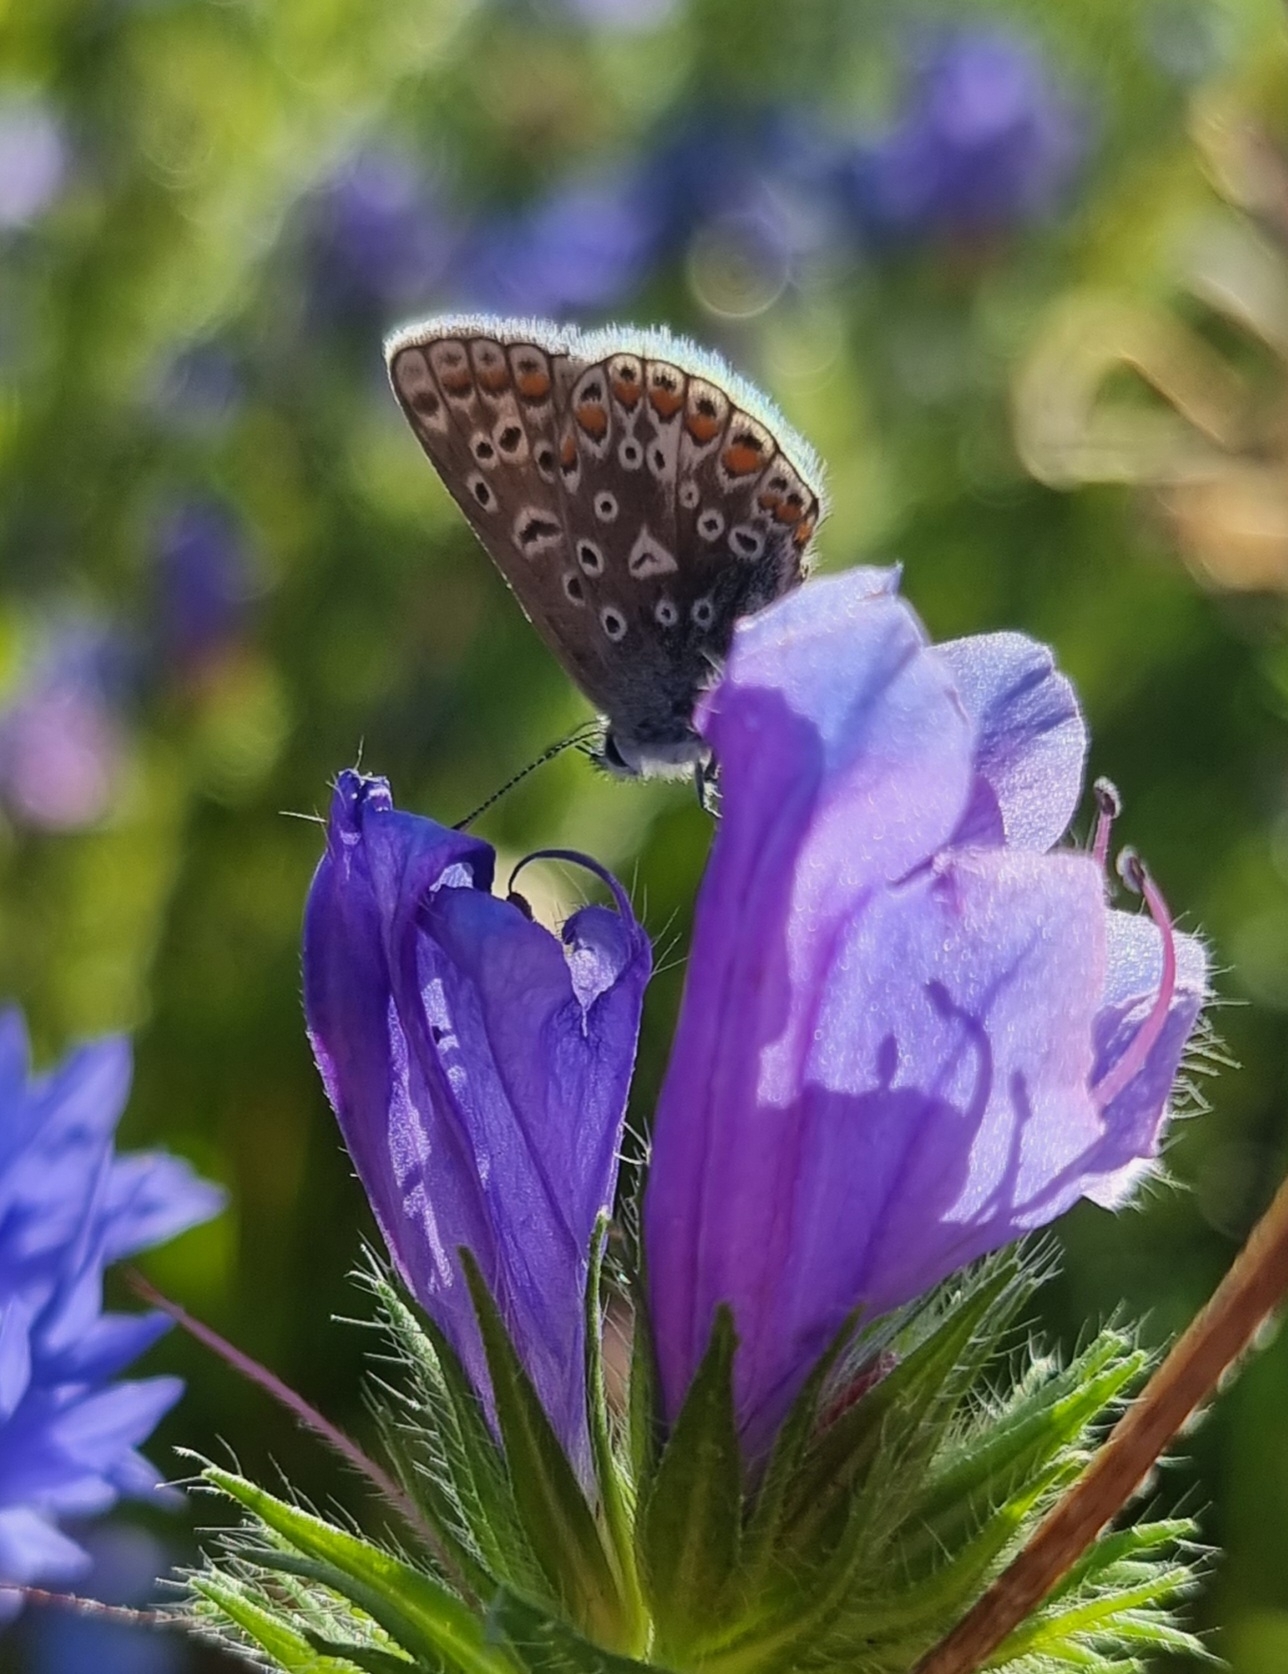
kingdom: Animalia
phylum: Arthropoda
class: Insecta
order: Lepidoptera
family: Lycaenidae
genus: Polyommatus
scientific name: Polyommatus icarus
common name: Almindelig blåfugl
